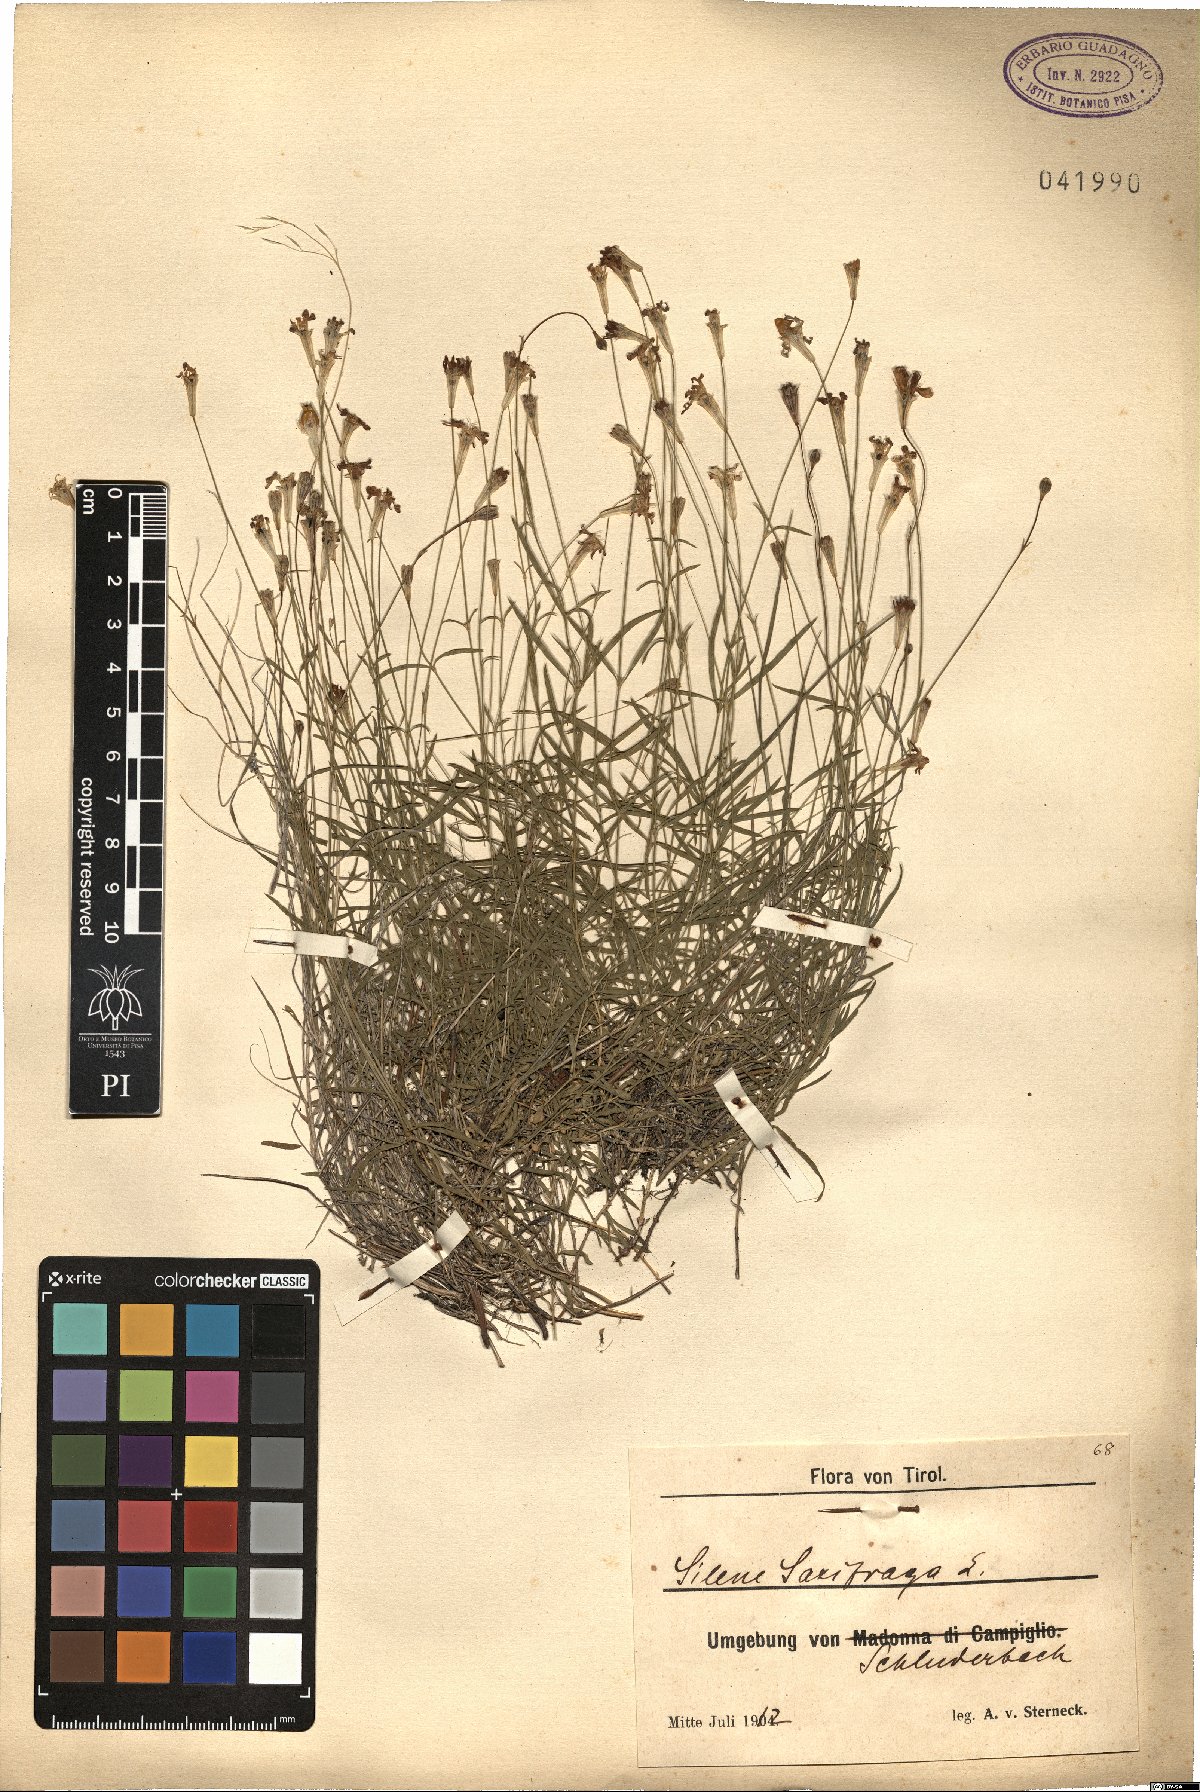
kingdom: Plantae
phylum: Tracheophyta
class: Magnoliopsida
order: Caryophyllales
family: Caryophyllaceae
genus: Silene
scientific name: Silene saxifraga
